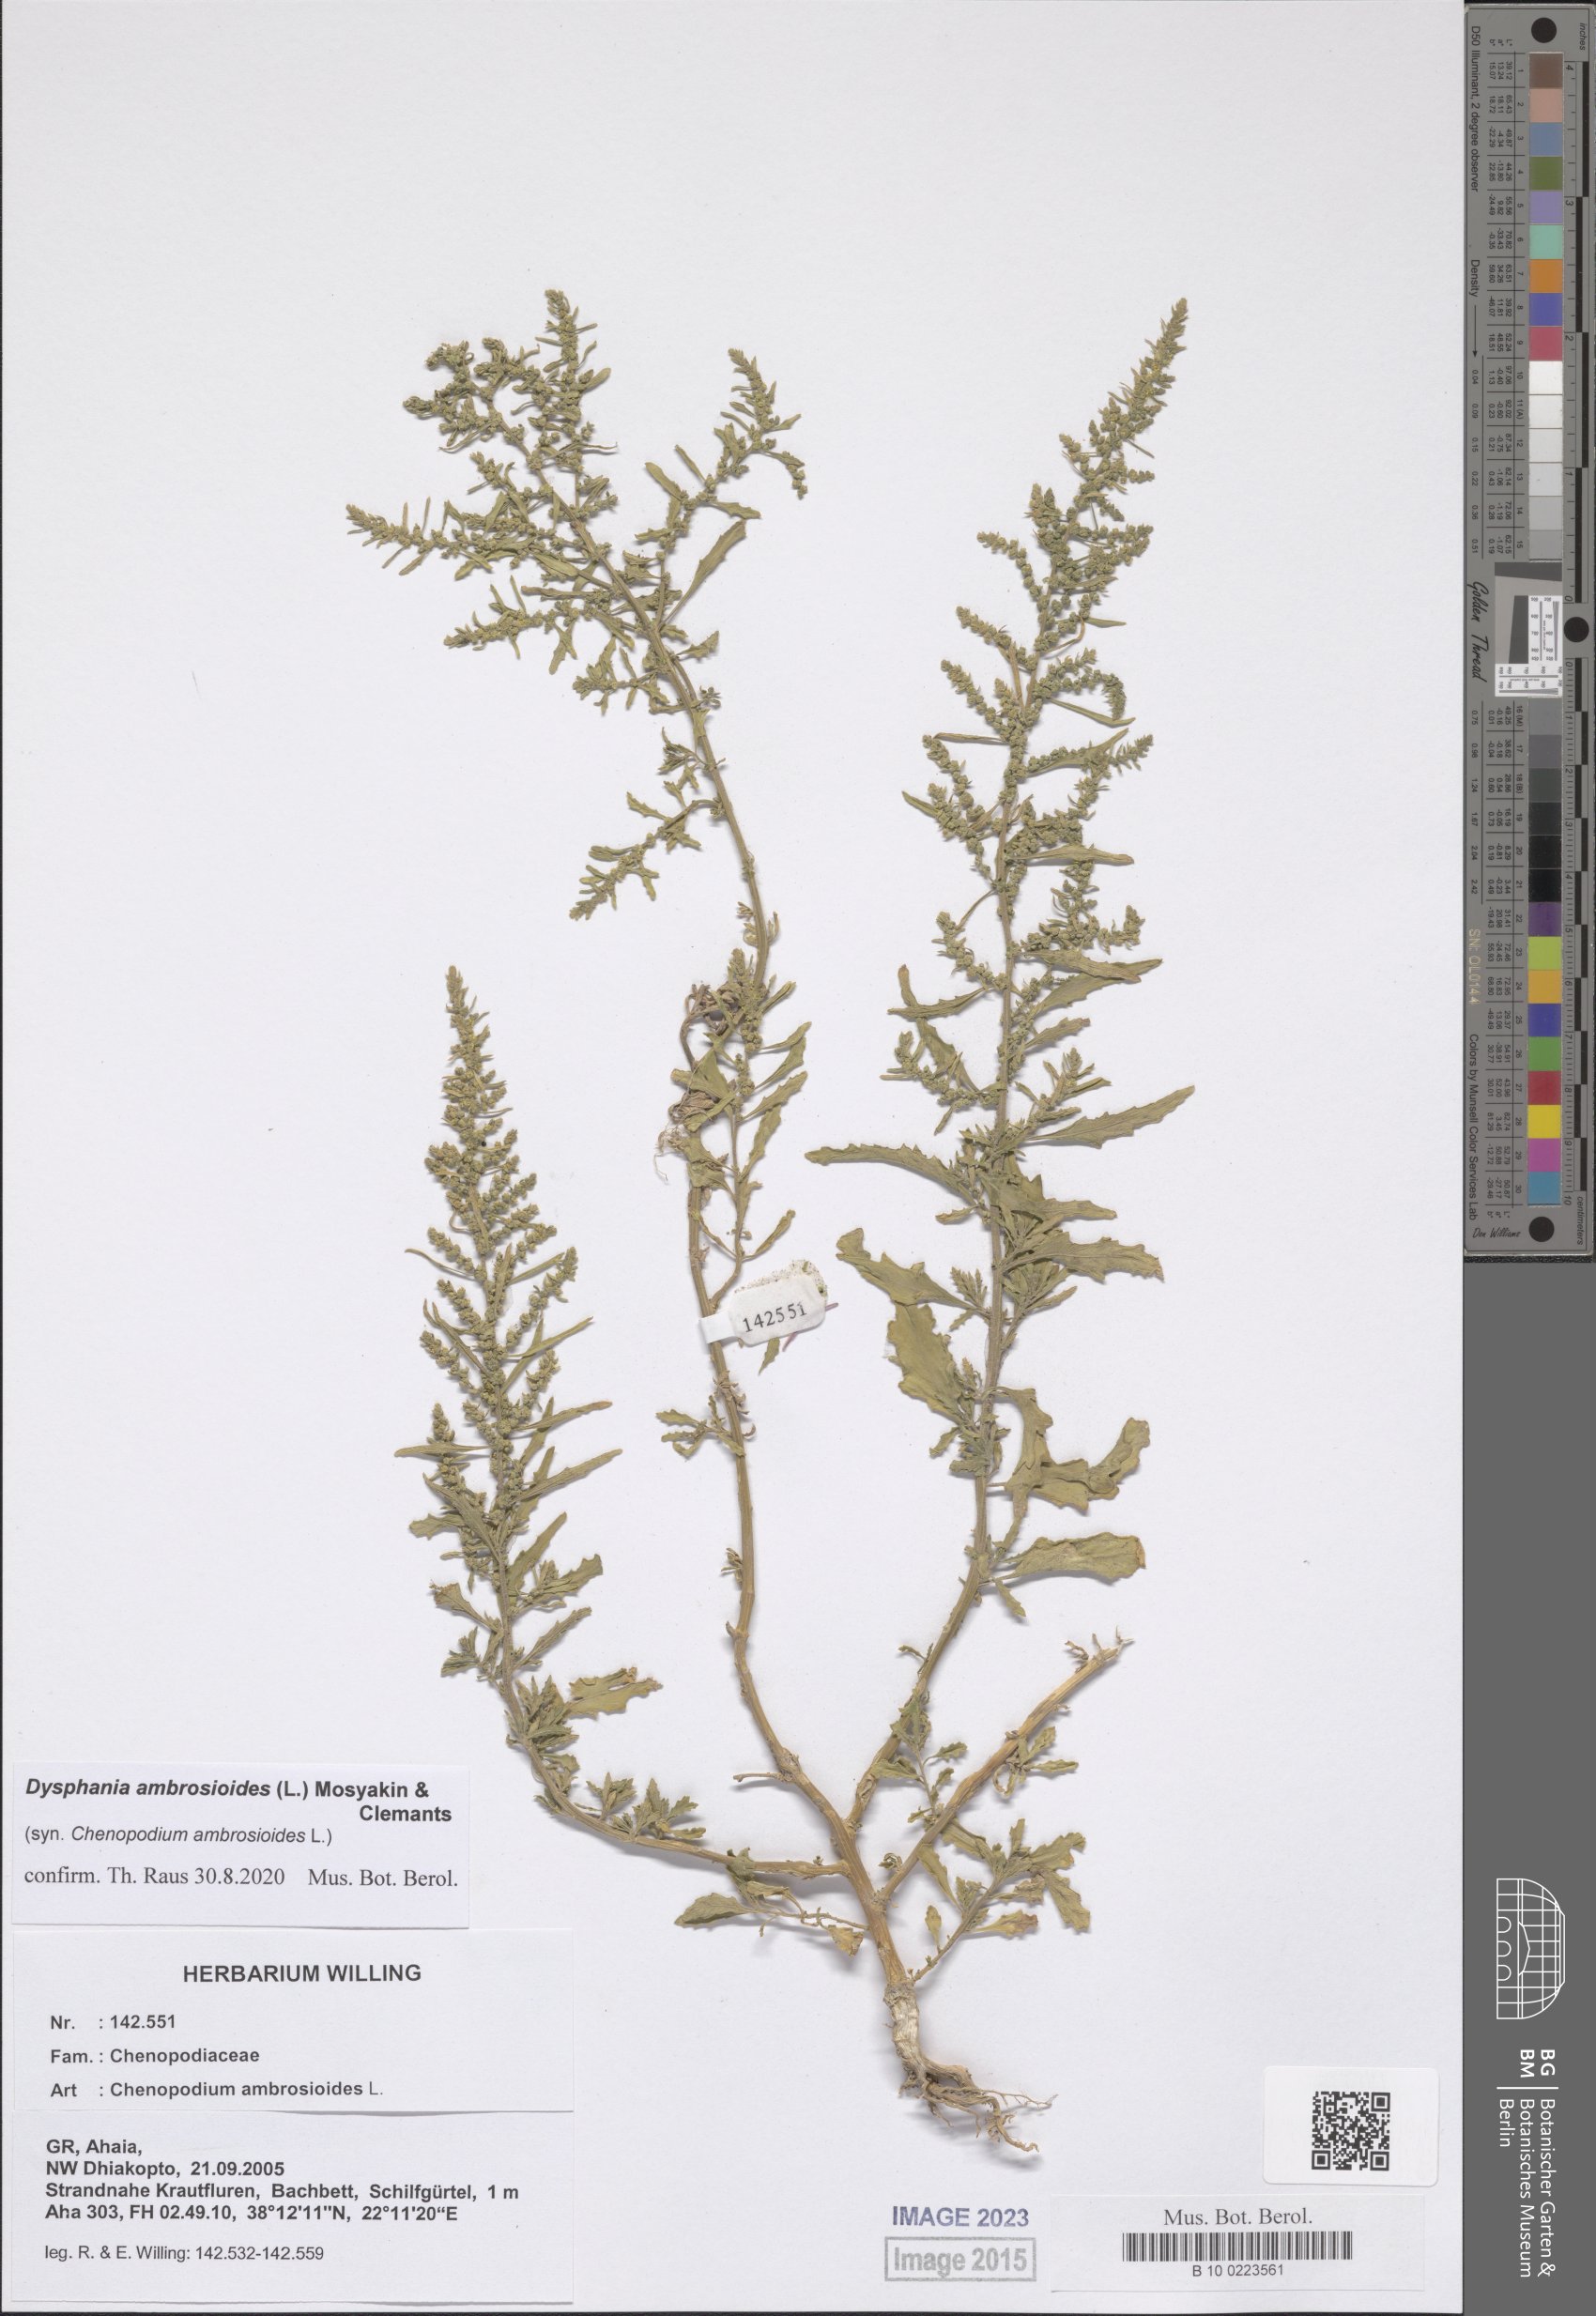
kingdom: Plantae
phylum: Tracheophyta
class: Magnoliopsida
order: Caryophyllales
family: Amaranthaceae
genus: Dysphania
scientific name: Dysphania ambrosioides
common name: Wormseed
